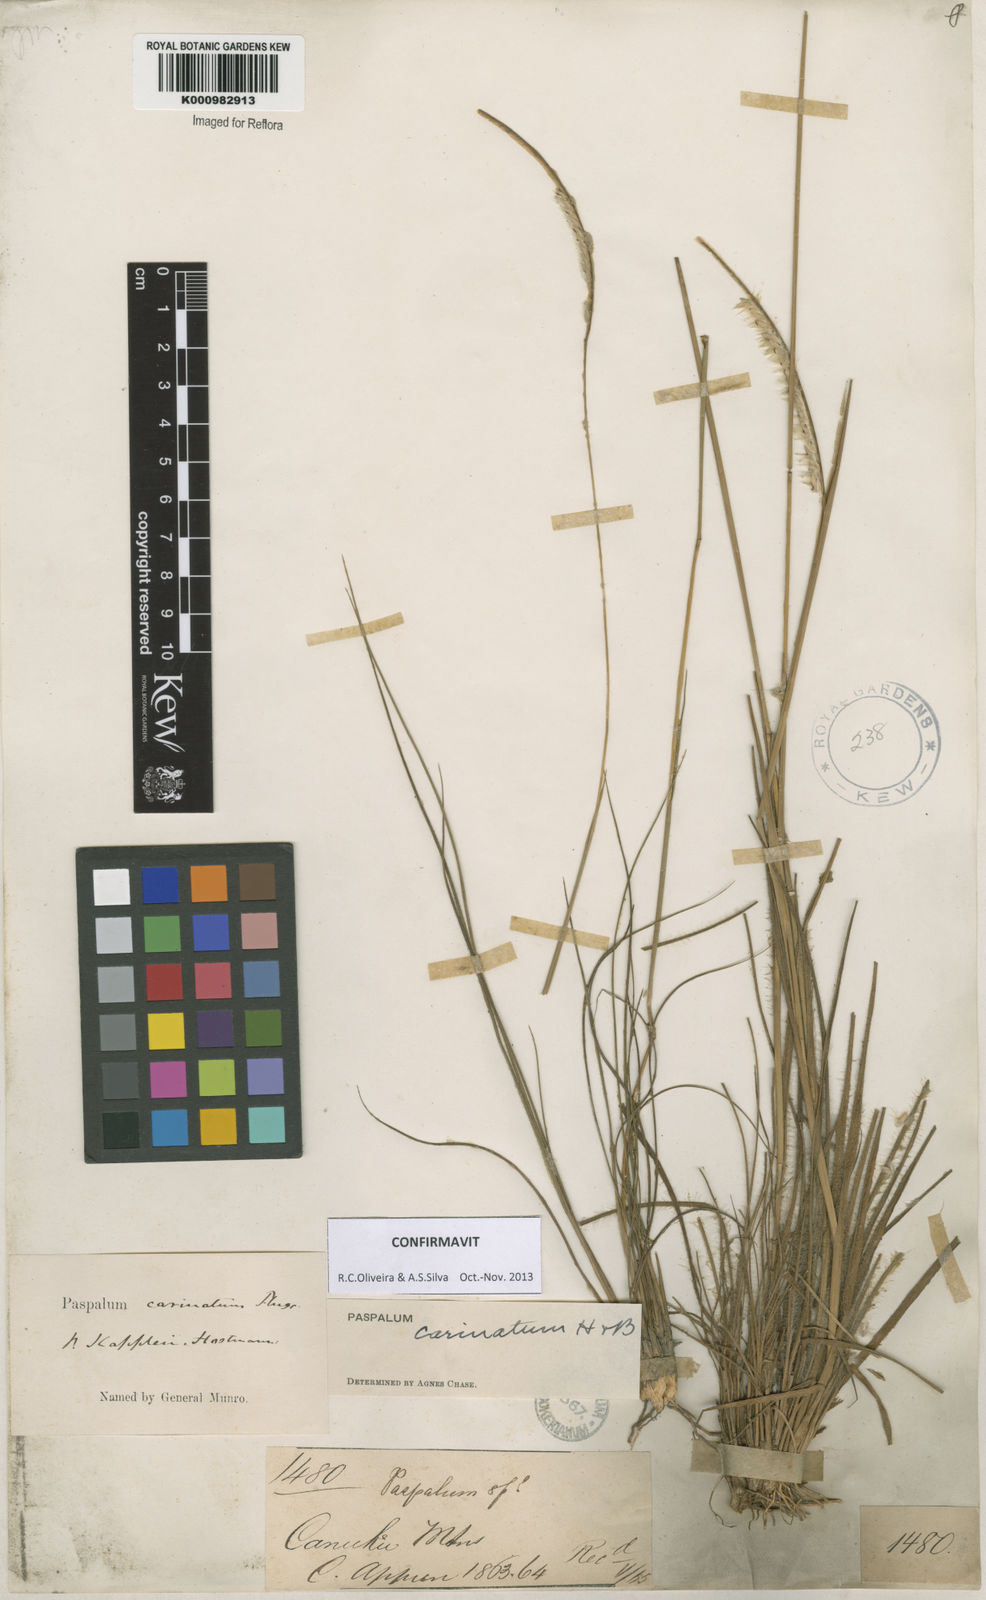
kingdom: Plantae
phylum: Tracheophyta
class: Liliopsida
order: Poales
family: Poaceae
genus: Paspalum
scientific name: Paspalum
